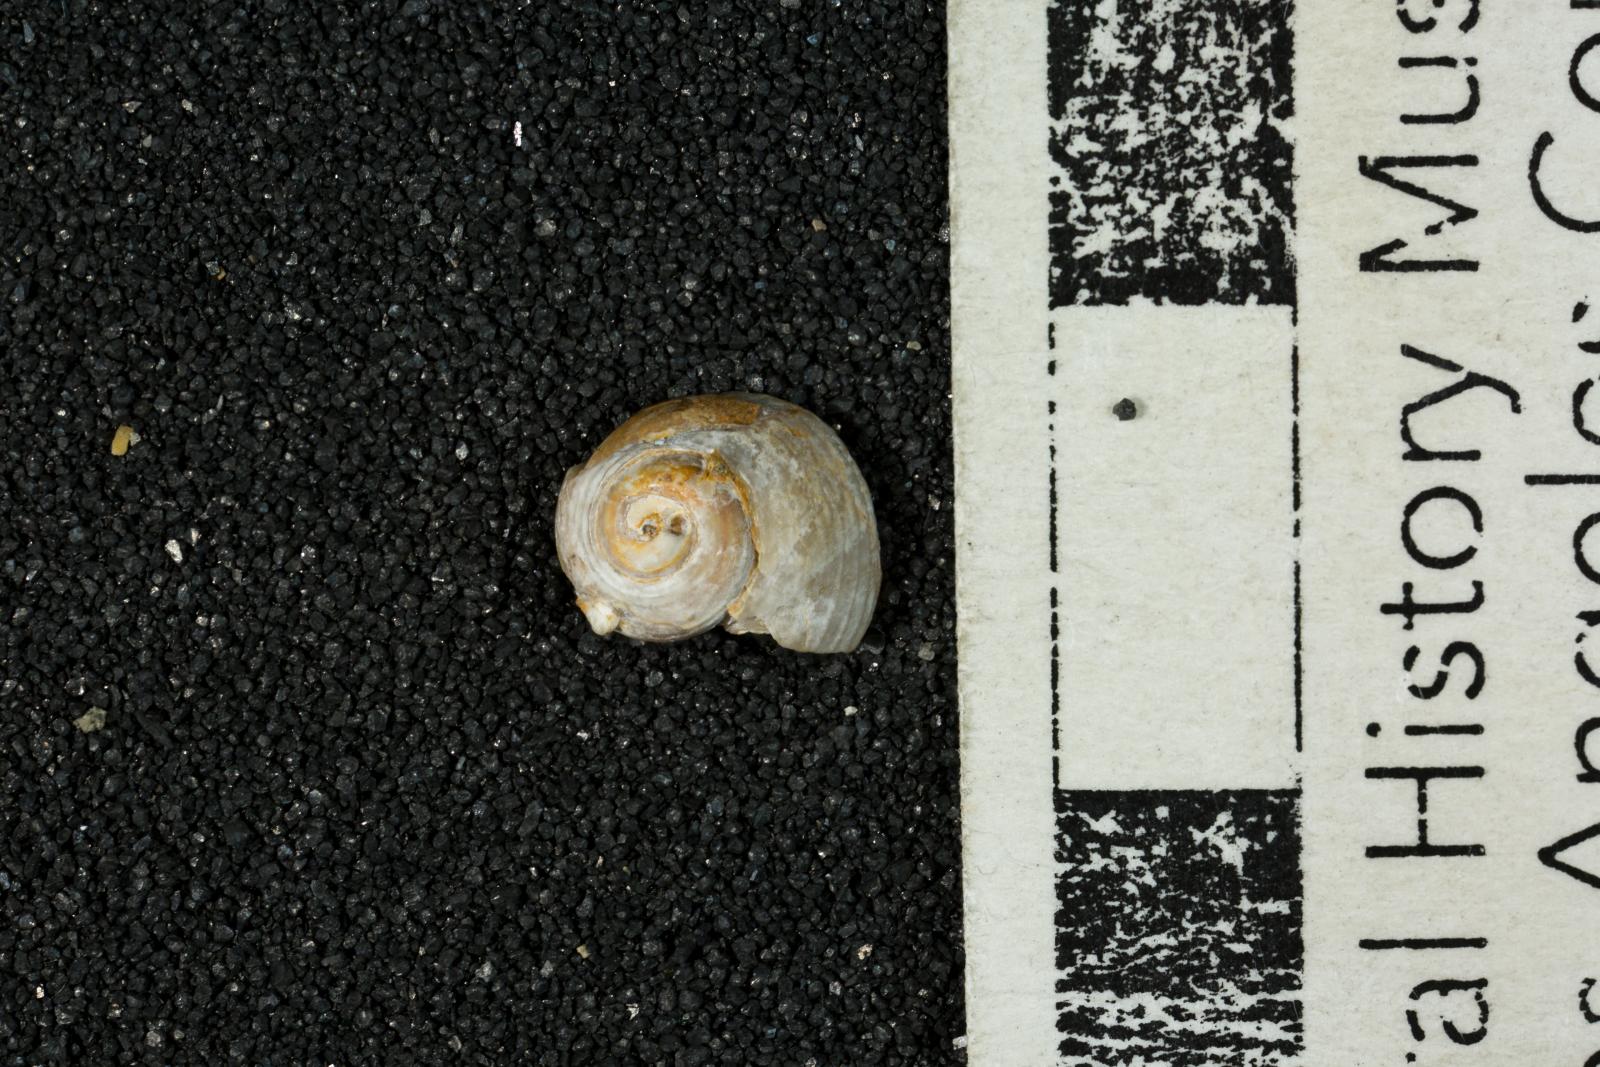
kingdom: Animalia
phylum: Mollusca
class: Gastropoda
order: Trochida
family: Colloniidae
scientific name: Colloniidae
